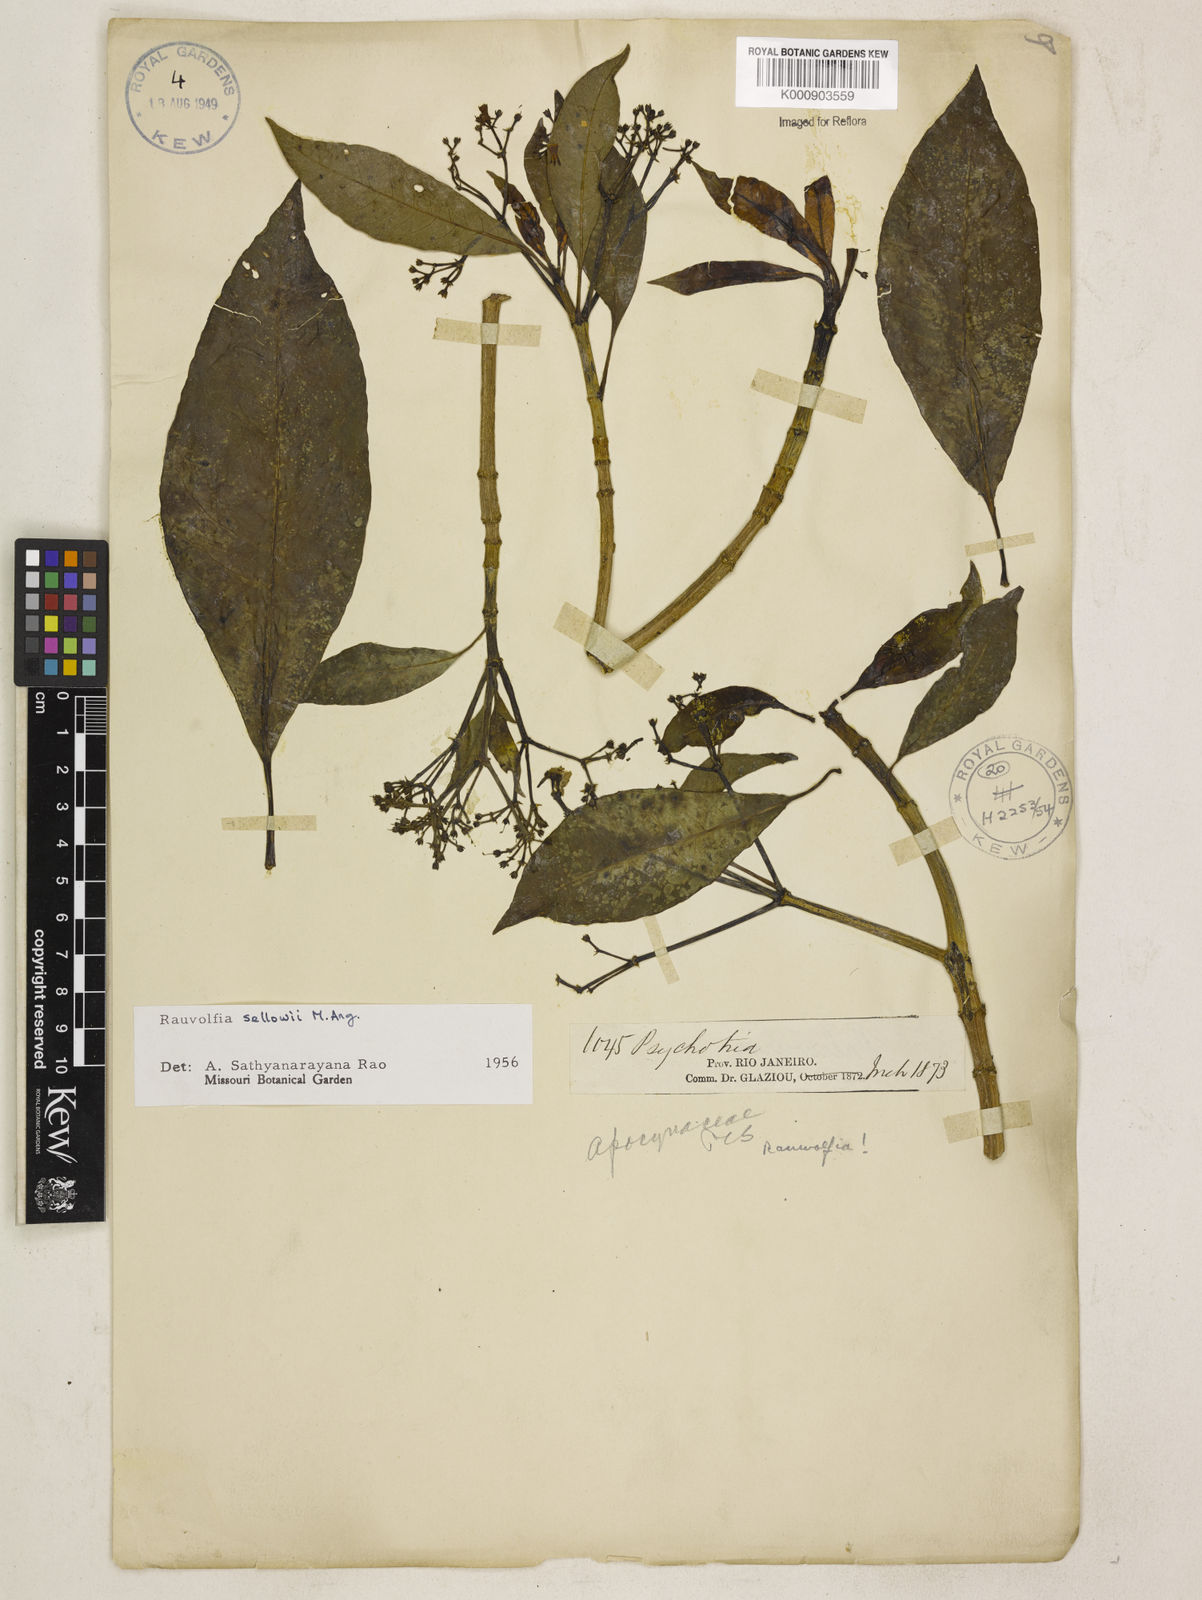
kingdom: Plantae
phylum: Tracheophyta
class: Magnoliopsida
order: Gentianales
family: Apocynaceae
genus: Rauvolfia
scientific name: Rauvolfia
